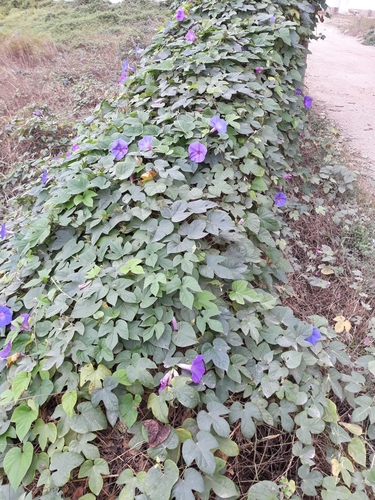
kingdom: Plantae
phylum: Tracheophyta
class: Magnoliopsida
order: Solanales
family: Convolvulaceae
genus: Ipomoea
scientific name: Ipomoea indica
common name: Blue dawnflower
